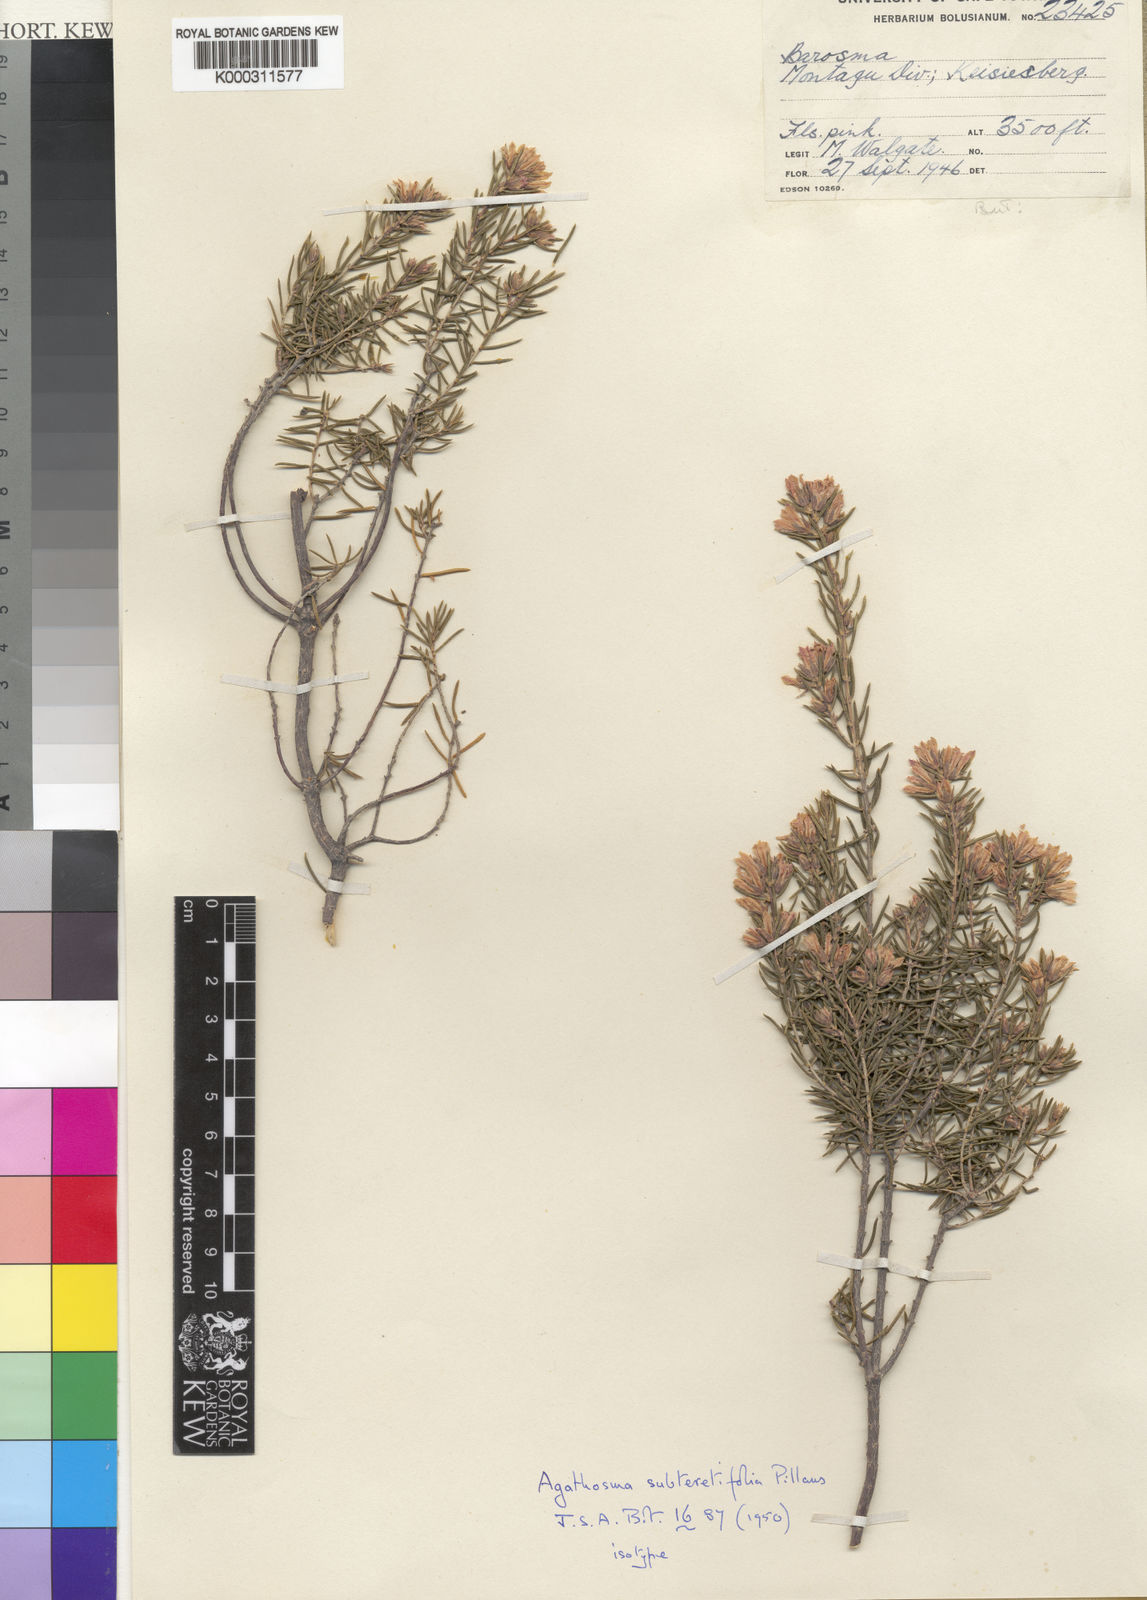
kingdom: Plantae
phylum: Tracheophyta
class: Magnoliopsida
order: Sapindales
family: Rutaceae
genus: Agathosma
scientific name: Agathosma
